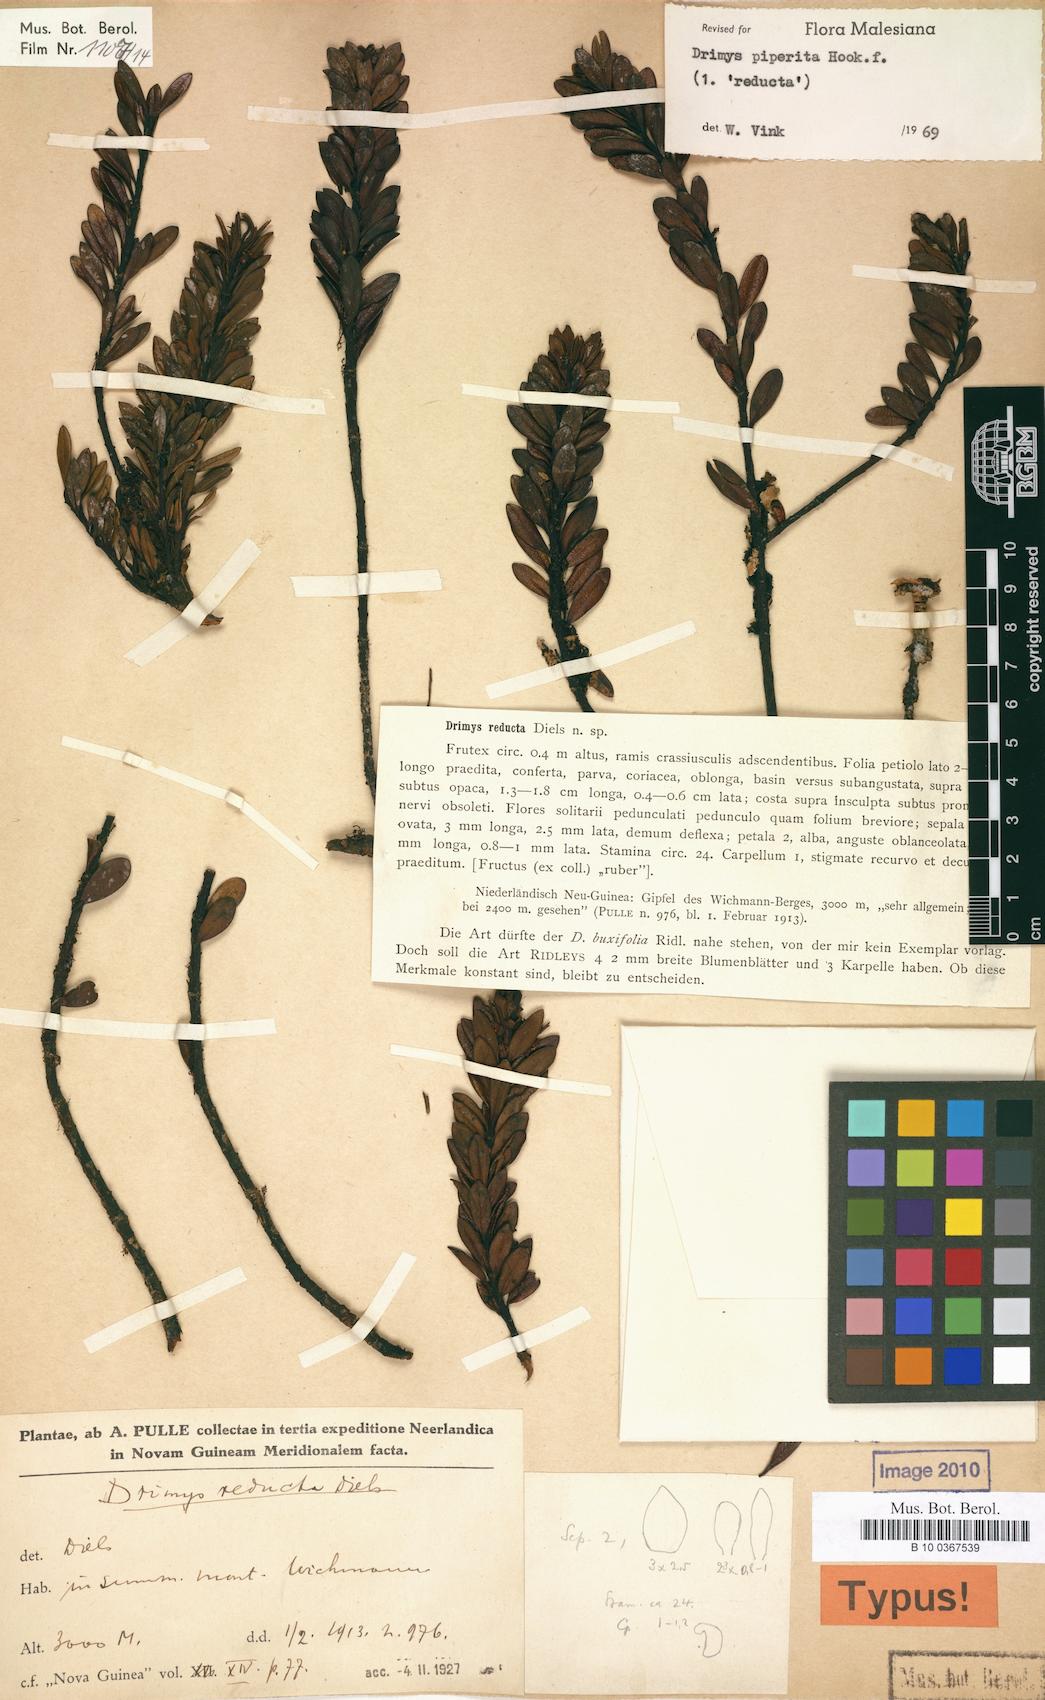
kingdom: Plantae
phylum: Tracheophyta
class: Magnoliopsida
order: Canellales
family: Winteraceae
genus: Drimys
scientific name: Drimys piperita
